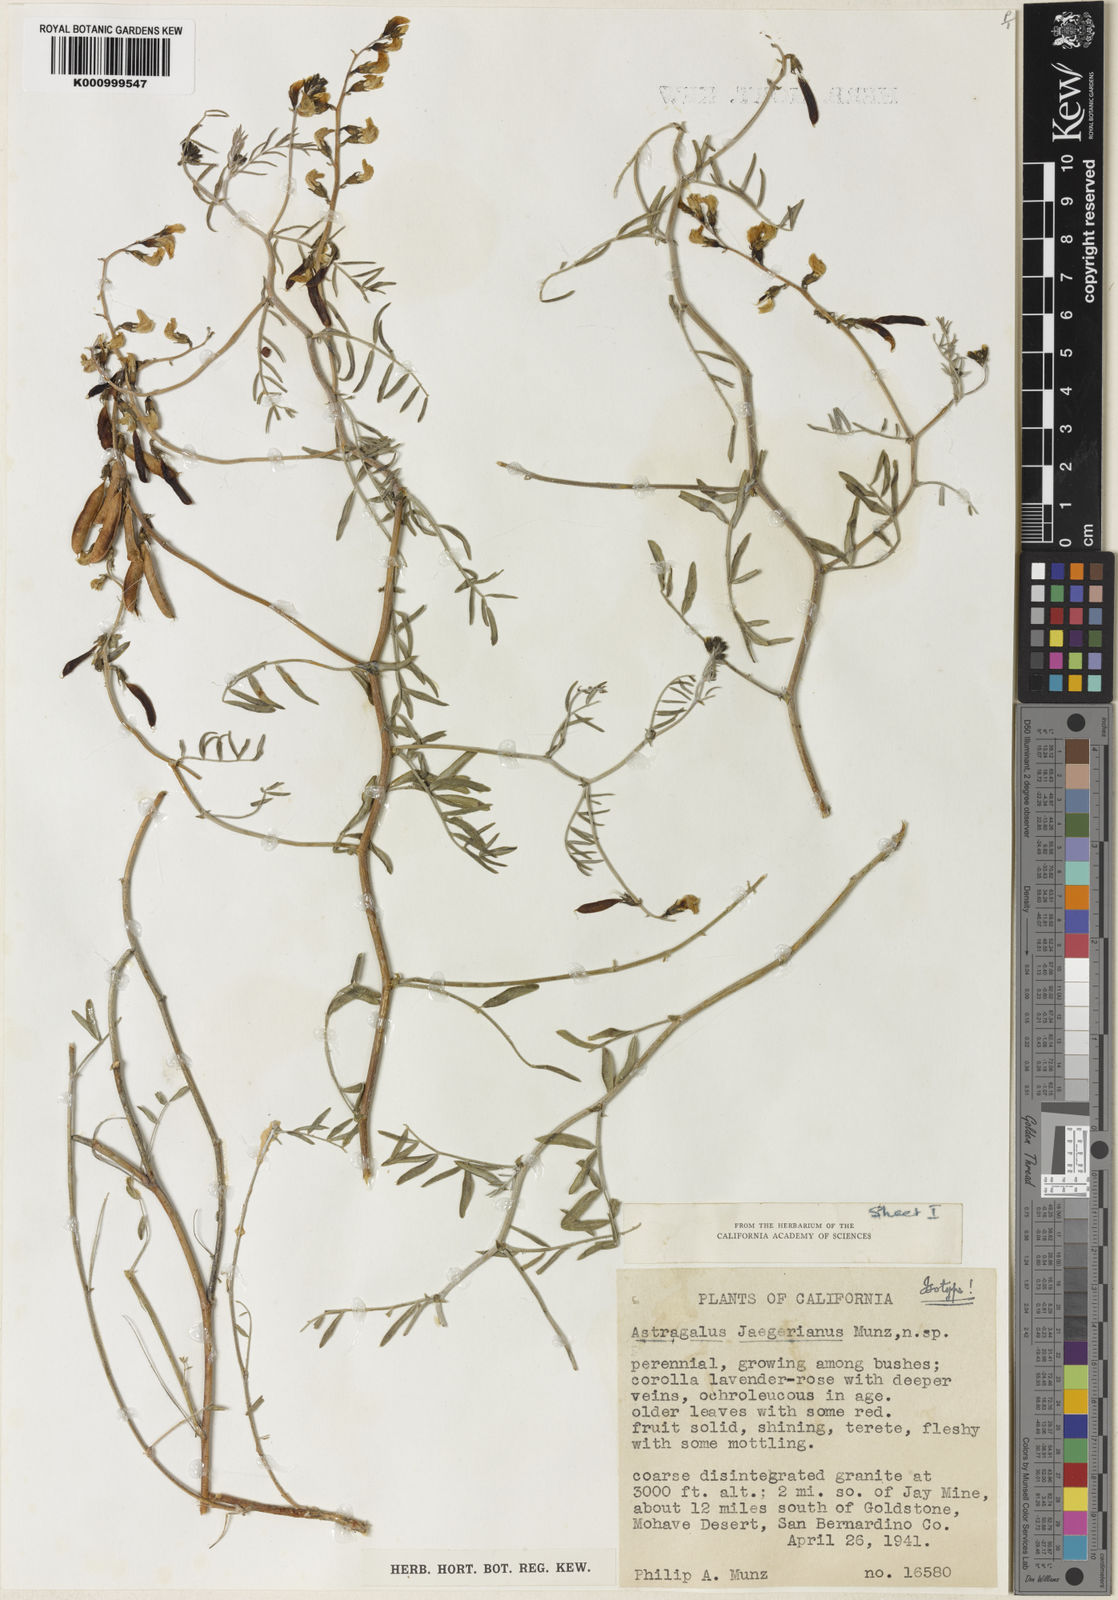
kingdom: Plantae
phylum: Tracheophyta
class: Magnoliopsida
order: Fabales
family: Fabaceae
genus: Astragalus
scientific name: Astragalus jaegerianus
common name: Lane mountain milk-vetch
